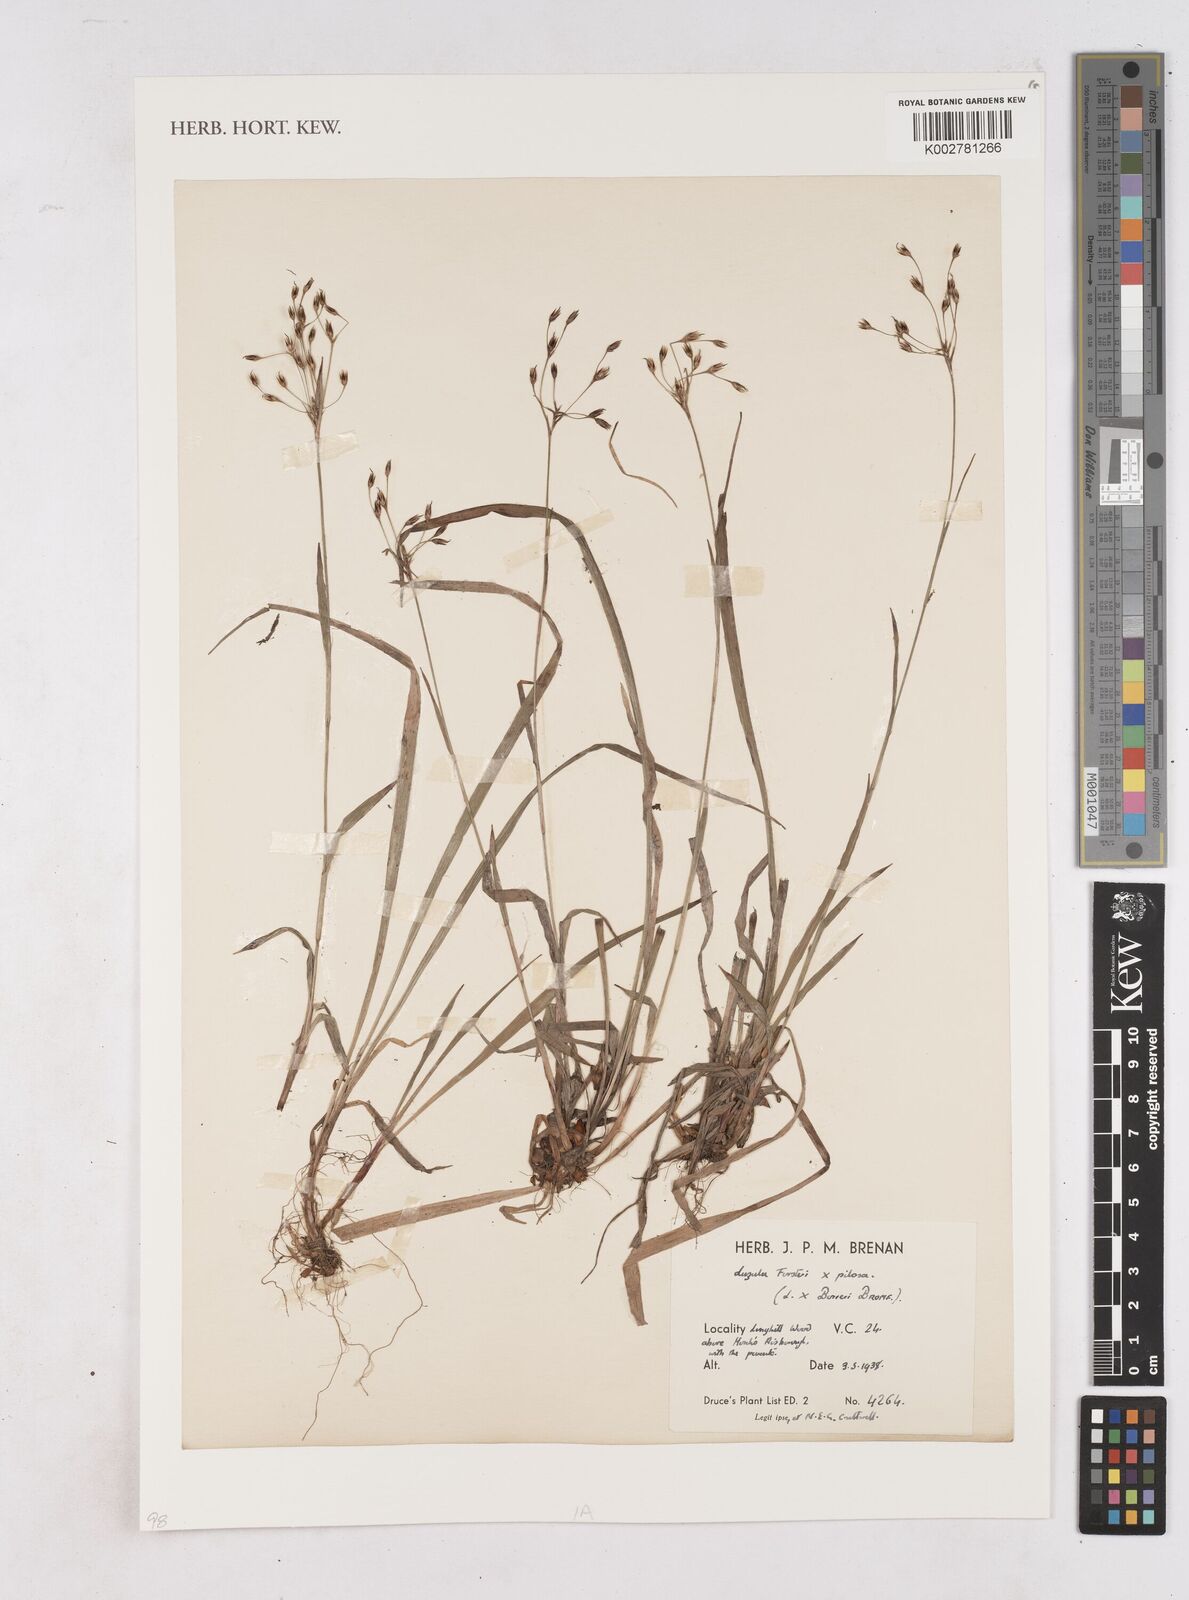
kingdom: Plantae
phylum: Tracheophyta
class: Liliopsida
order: Poales
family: Juncaceae
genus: Luzula
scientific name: Luzula borreri
